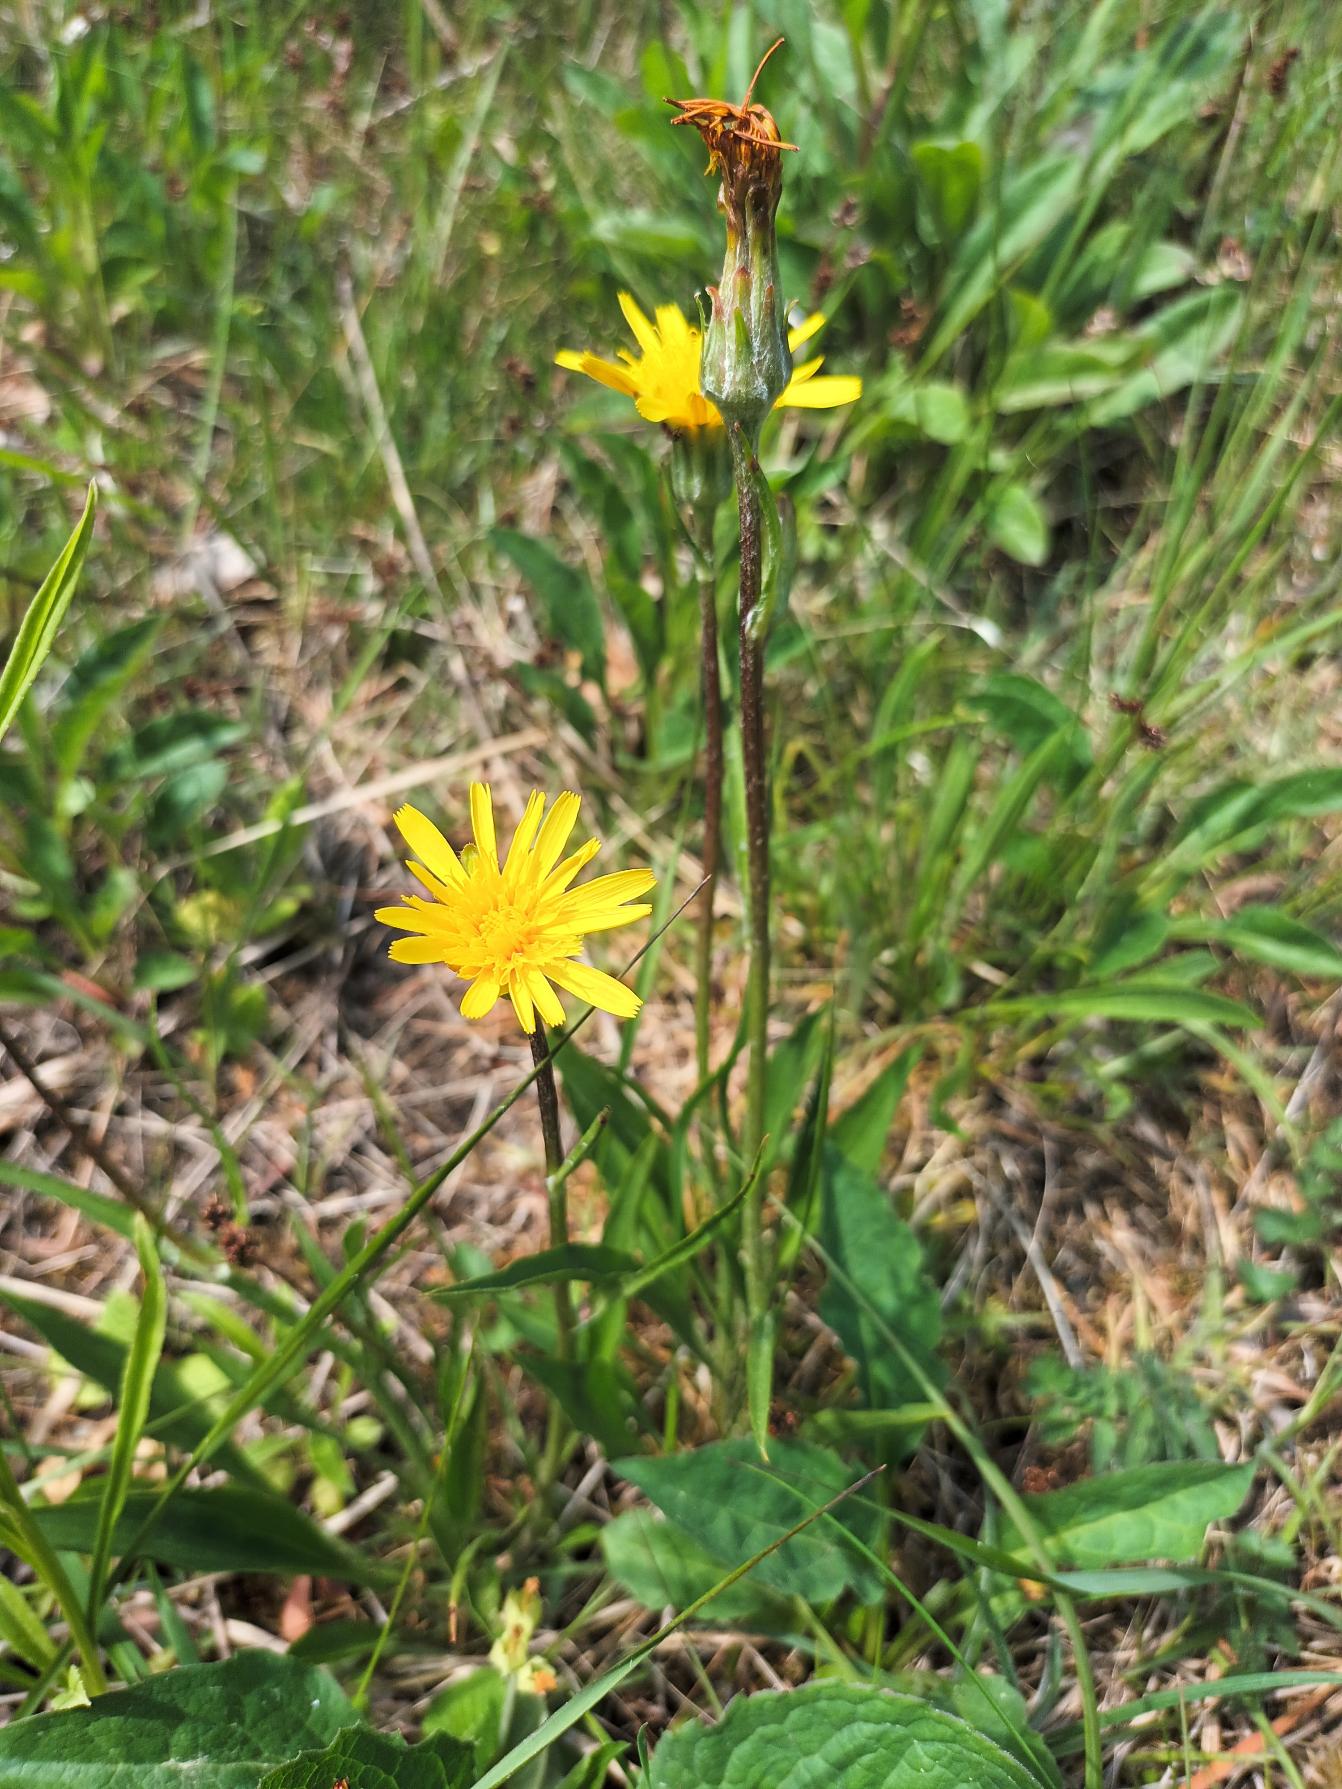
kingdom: Plantae
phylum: Tracheophyta
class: Magnoliopsida
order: Asterales
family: Asteraceae
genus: Scorzonera
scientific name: Scorzonera humilis
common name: Lav skorsoner
